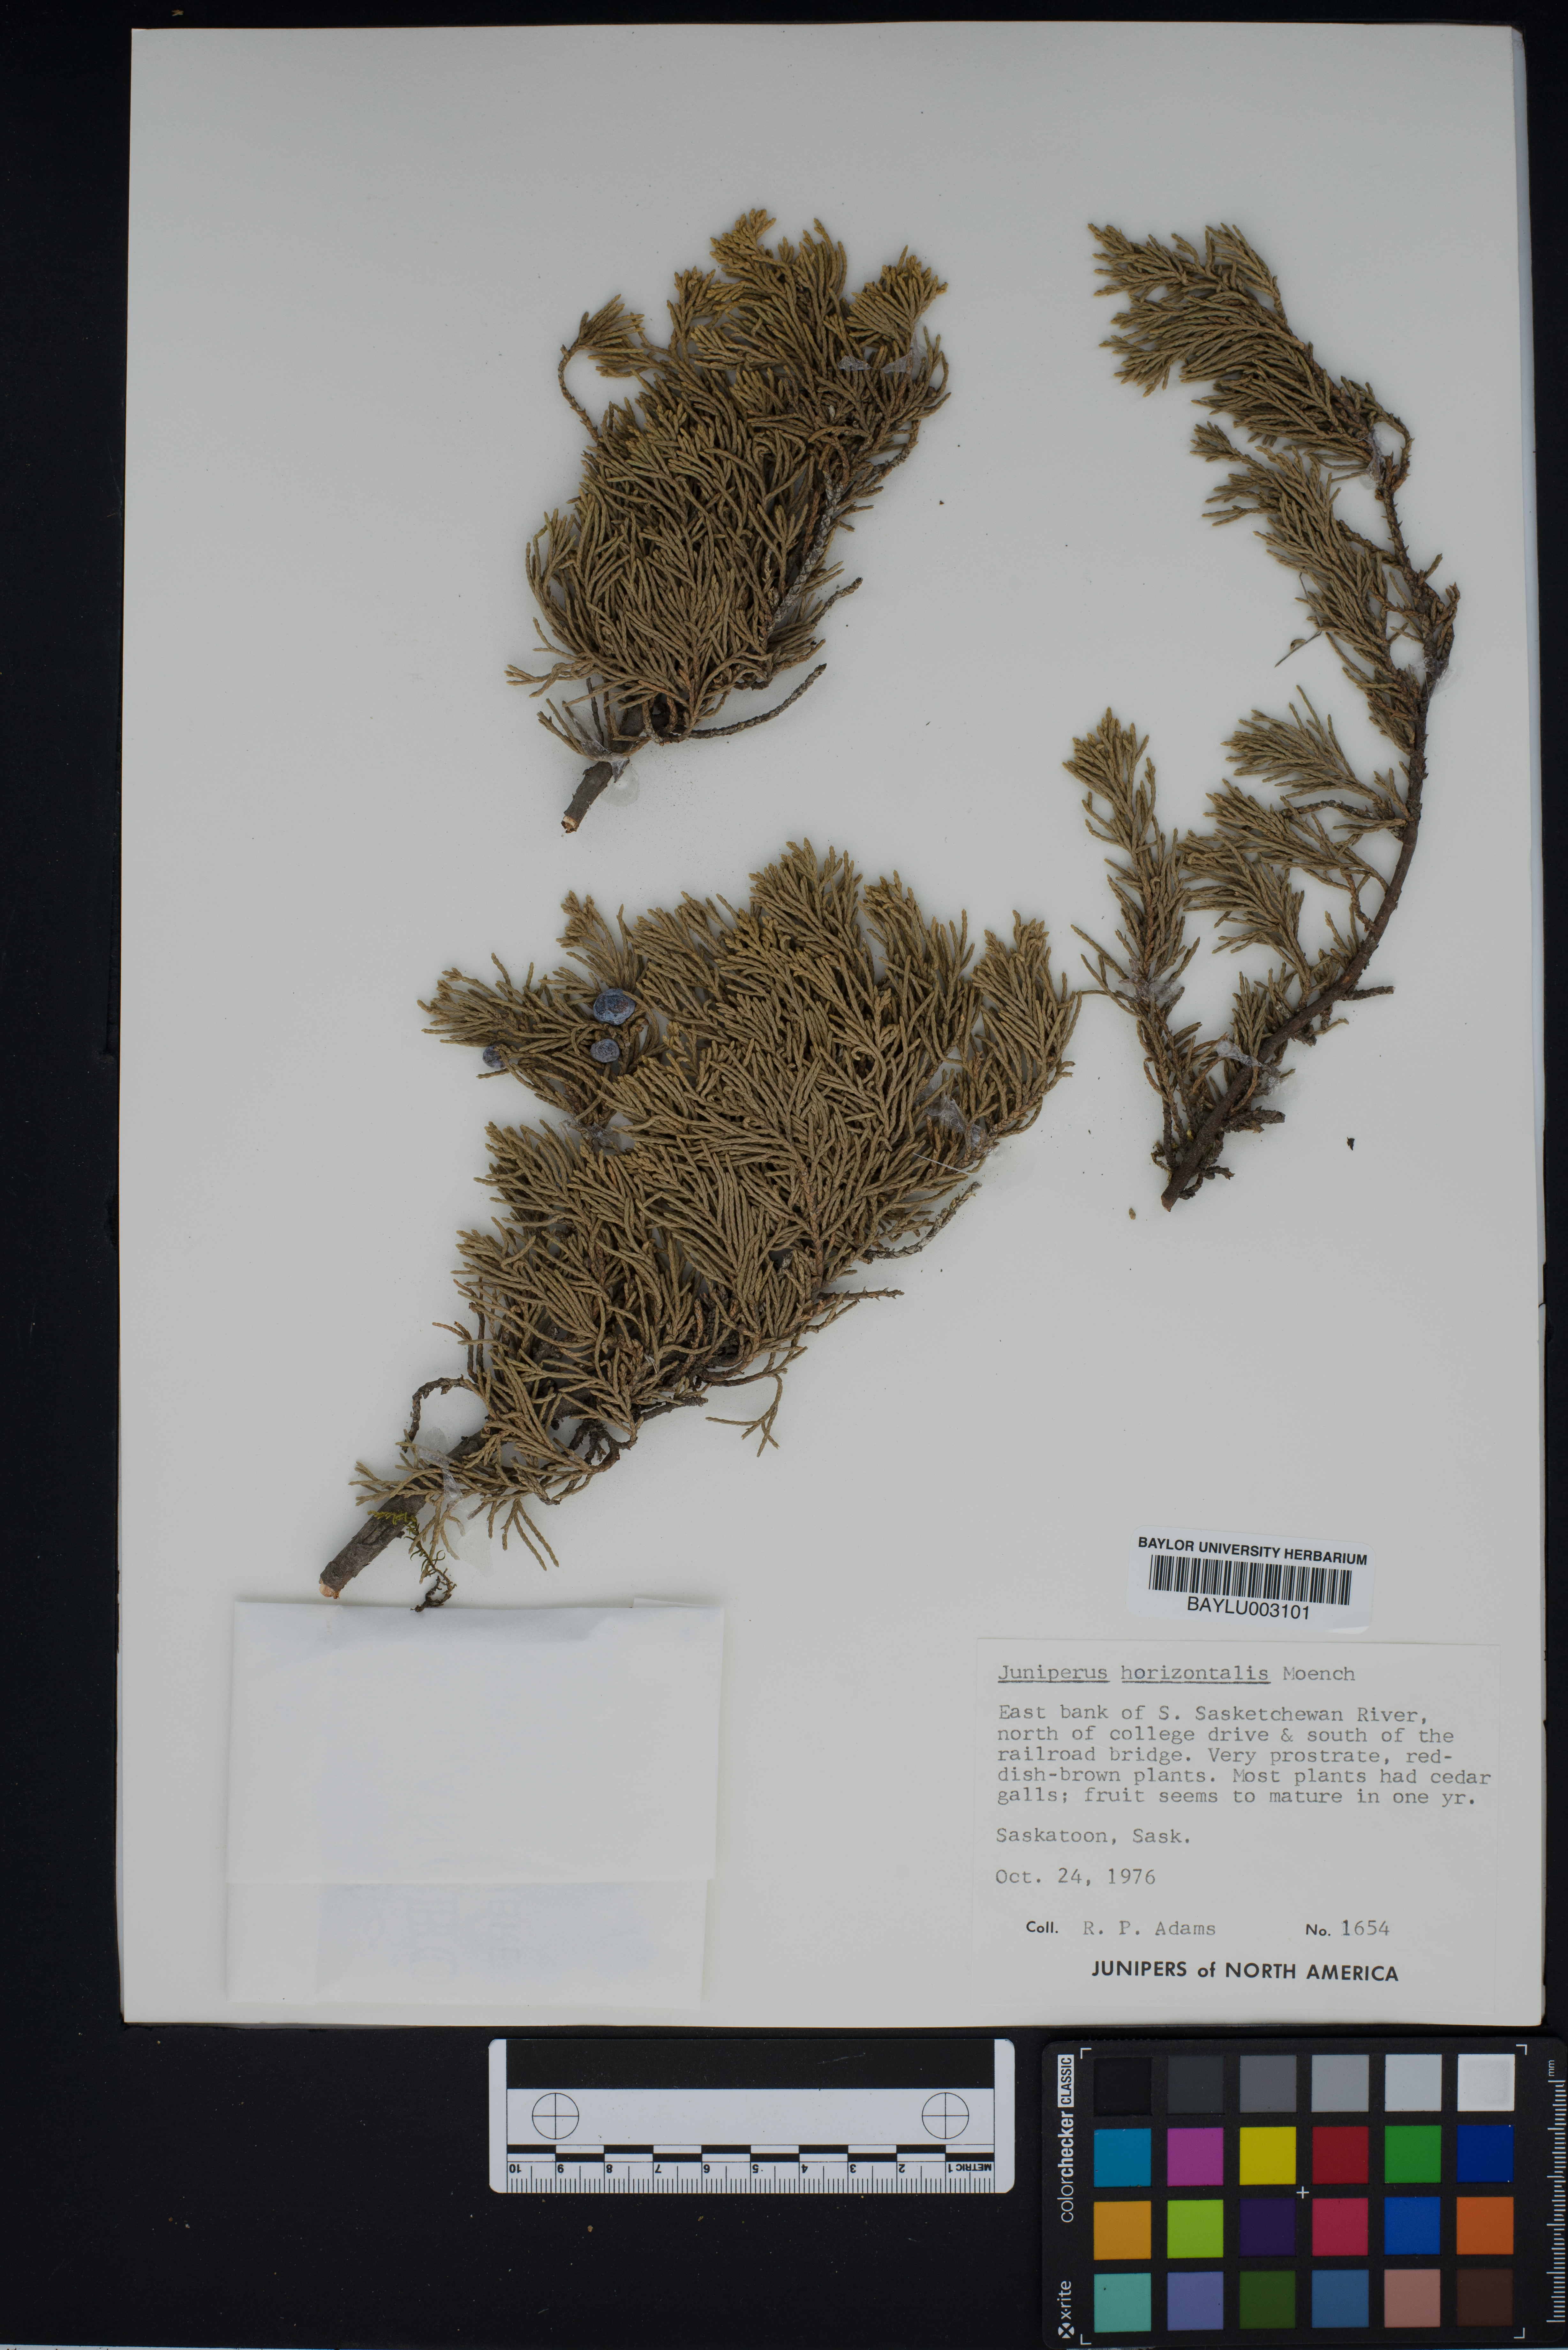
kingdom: Plantae
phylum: Tracheophyta
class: Pinopsida
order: Pinales
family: Cupressaceae
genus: Juniperus
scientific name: Juniperus horizontalis
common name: Creeping juniper
